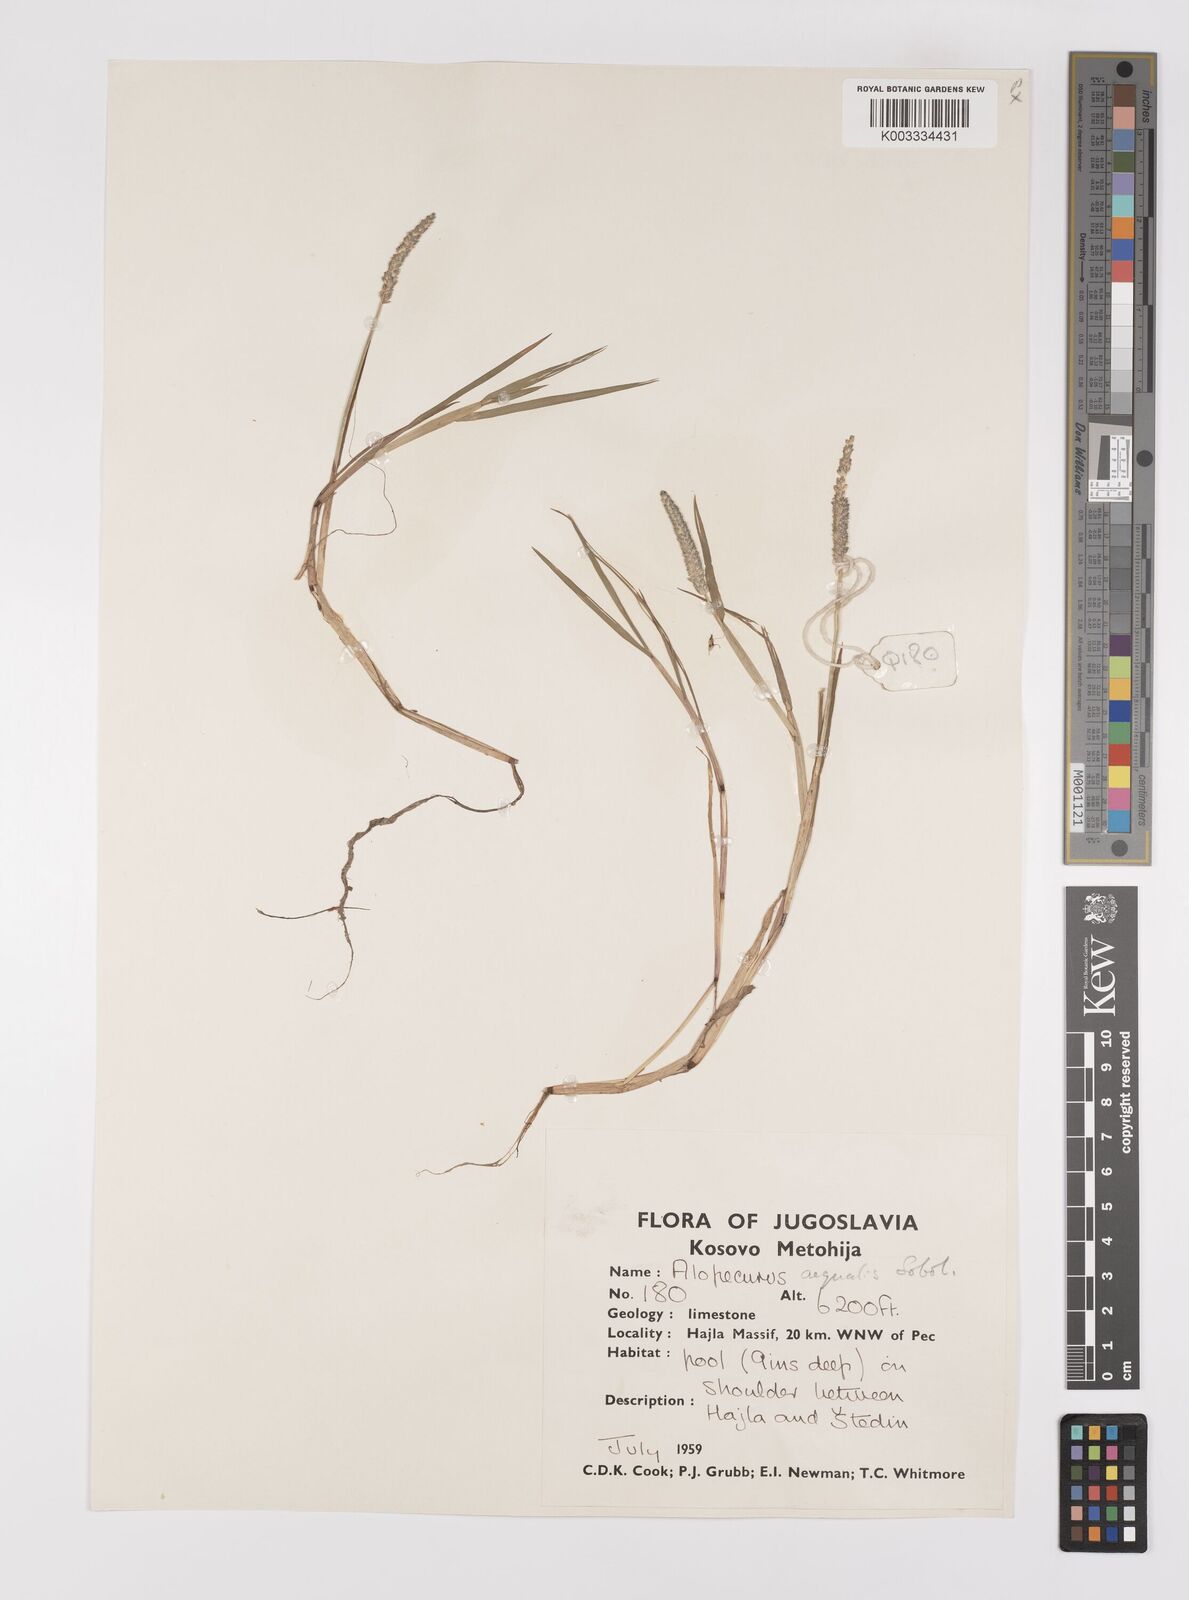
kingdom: Plantae
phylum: Tracheophyta
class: Liliopsida
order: Poales
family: Poaceae
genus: Alopecurus
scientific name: Alopecurus aequalis
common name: Orange foxtail
